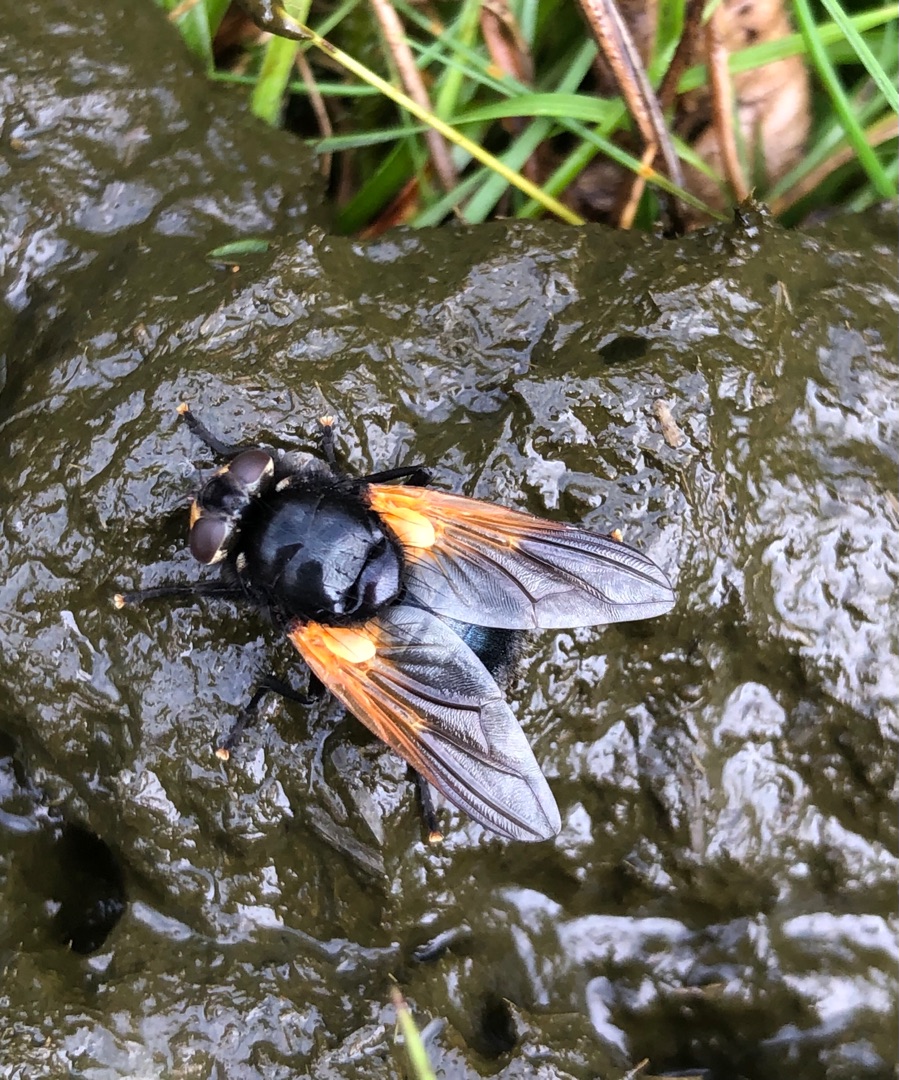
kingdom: Animalia
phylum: Arthropoda
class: Insecta
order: Diptera
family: Muscidae
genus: Mesembrina
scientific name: Mesembrina meridiana
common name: Gulvinget flue
